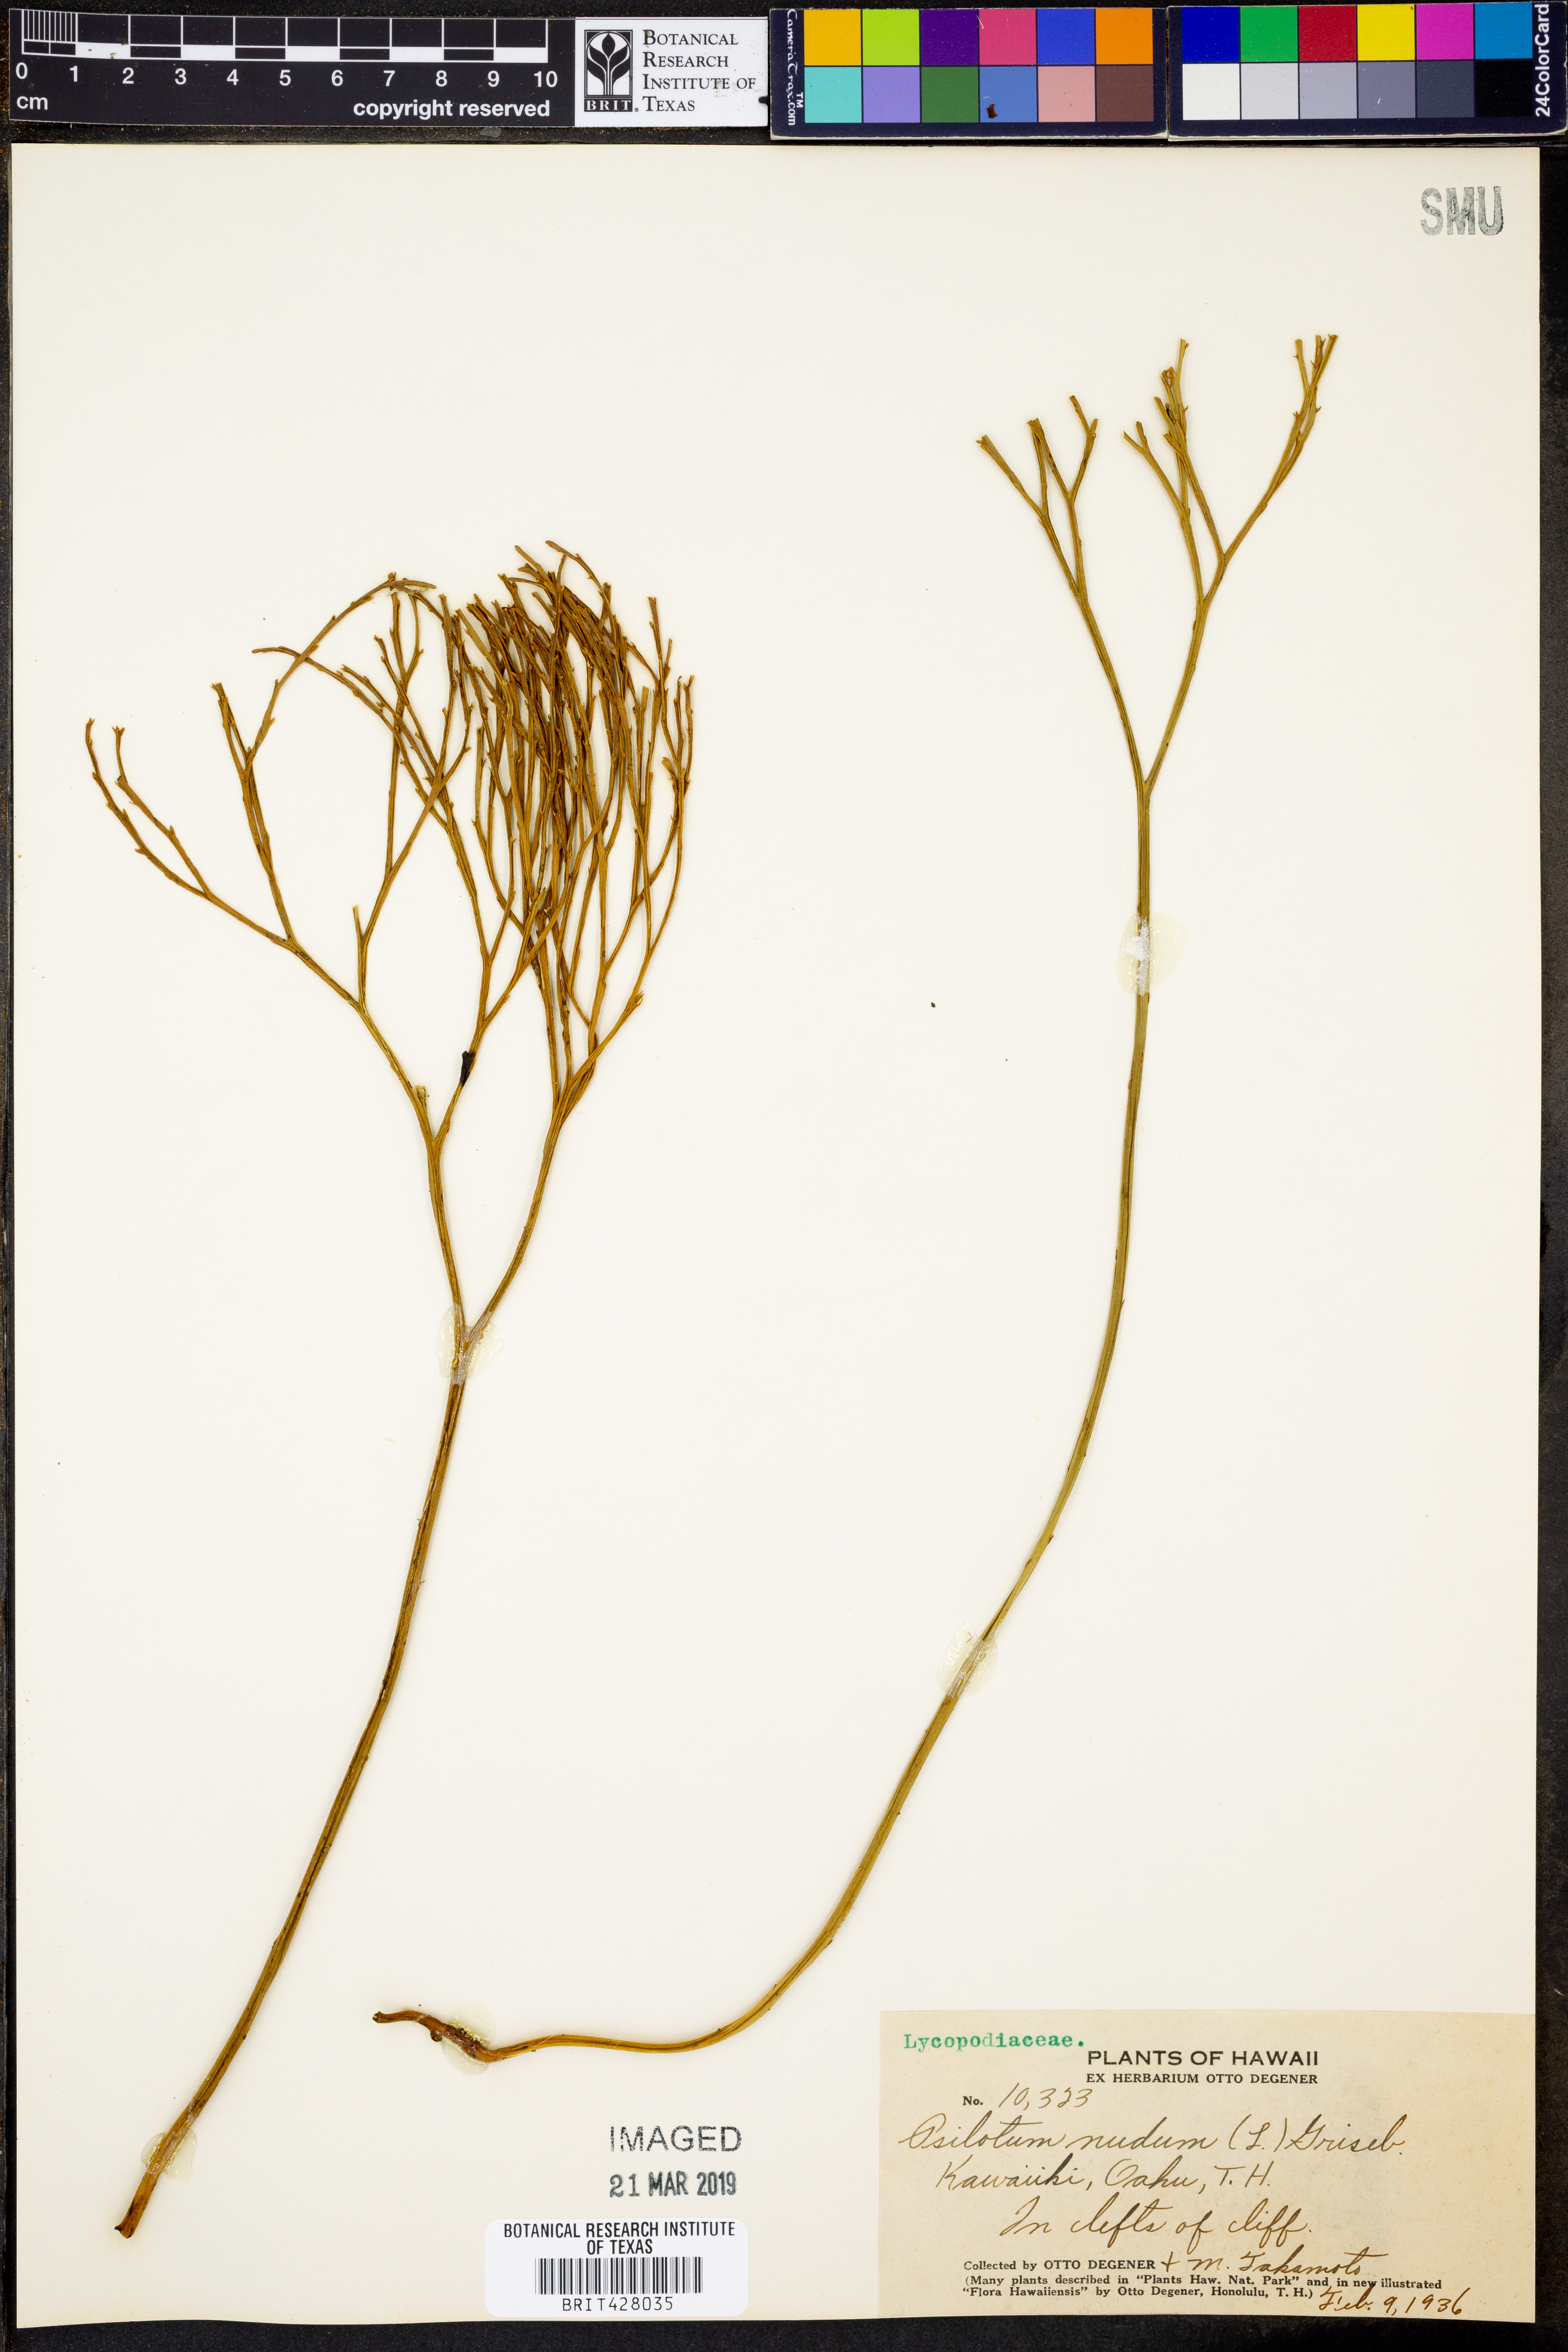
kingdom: Plantae
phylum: Tracheophyta
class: Polypodiopsida
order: Psilotales
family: Psilotaceae
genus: Psilotum
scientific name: Psilotum nudum
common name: Skeleton fork fern
